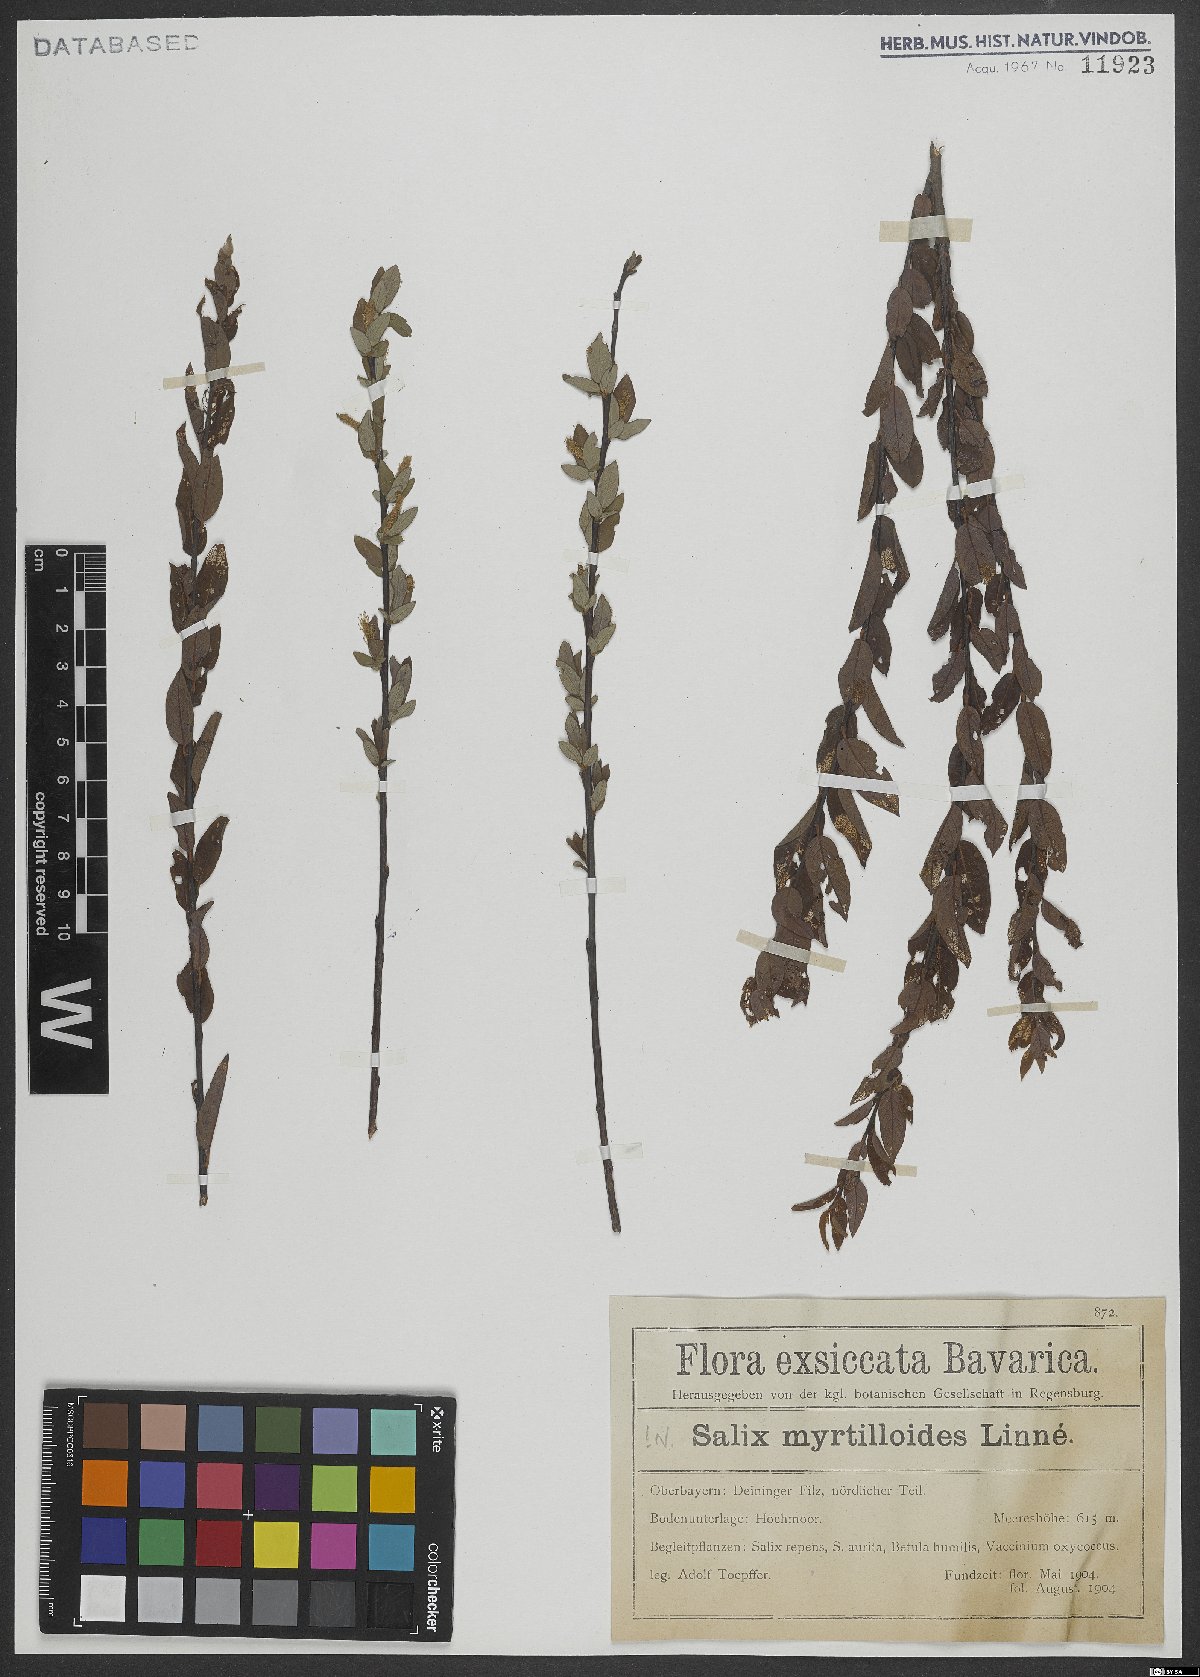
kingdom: Plantae
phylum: Tracheophyta
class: Magnoliopsida
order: Malpighiales
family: Salicaceae
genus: Salix
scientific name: Salix myrtilloides
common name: Myrtle-leaved willow
